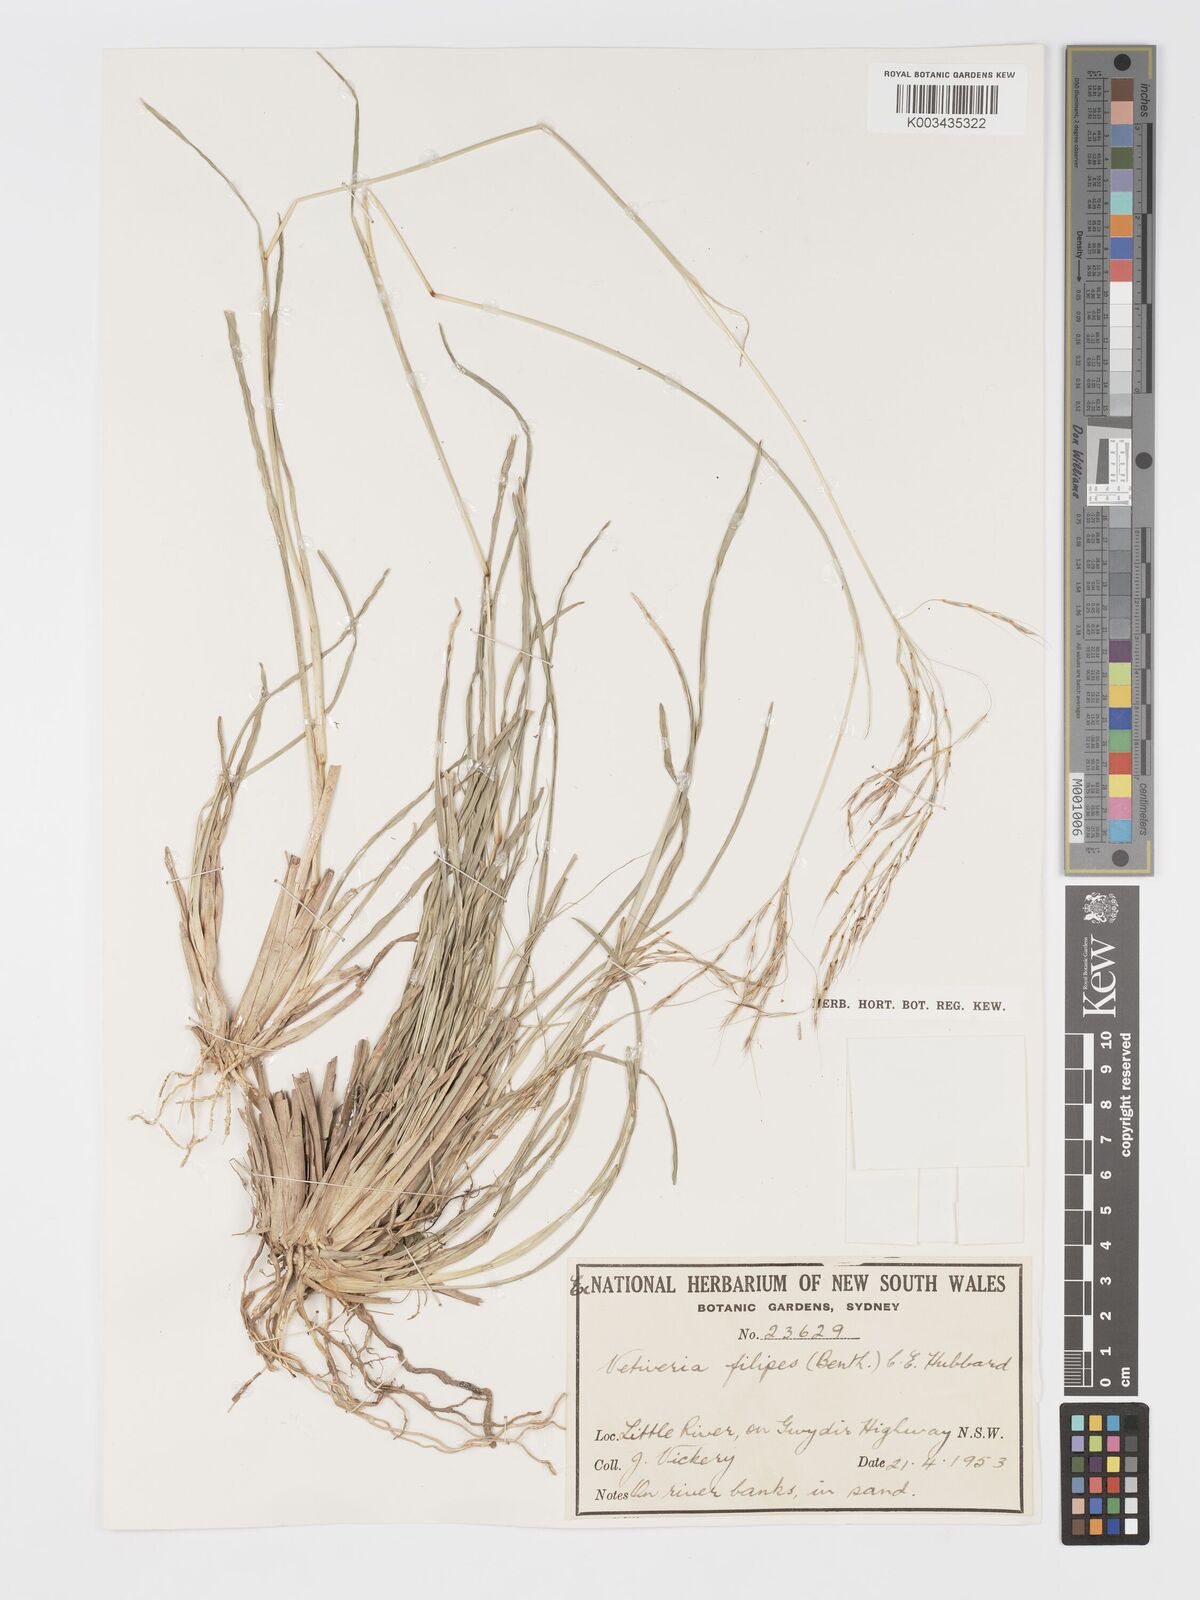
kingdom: Plantae
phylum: Tracheophyta
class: Liliopsida
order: Poales
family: Poaceae
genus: Chrysopogon
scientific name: Chrysopogon filipes
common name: Australian vetiver
